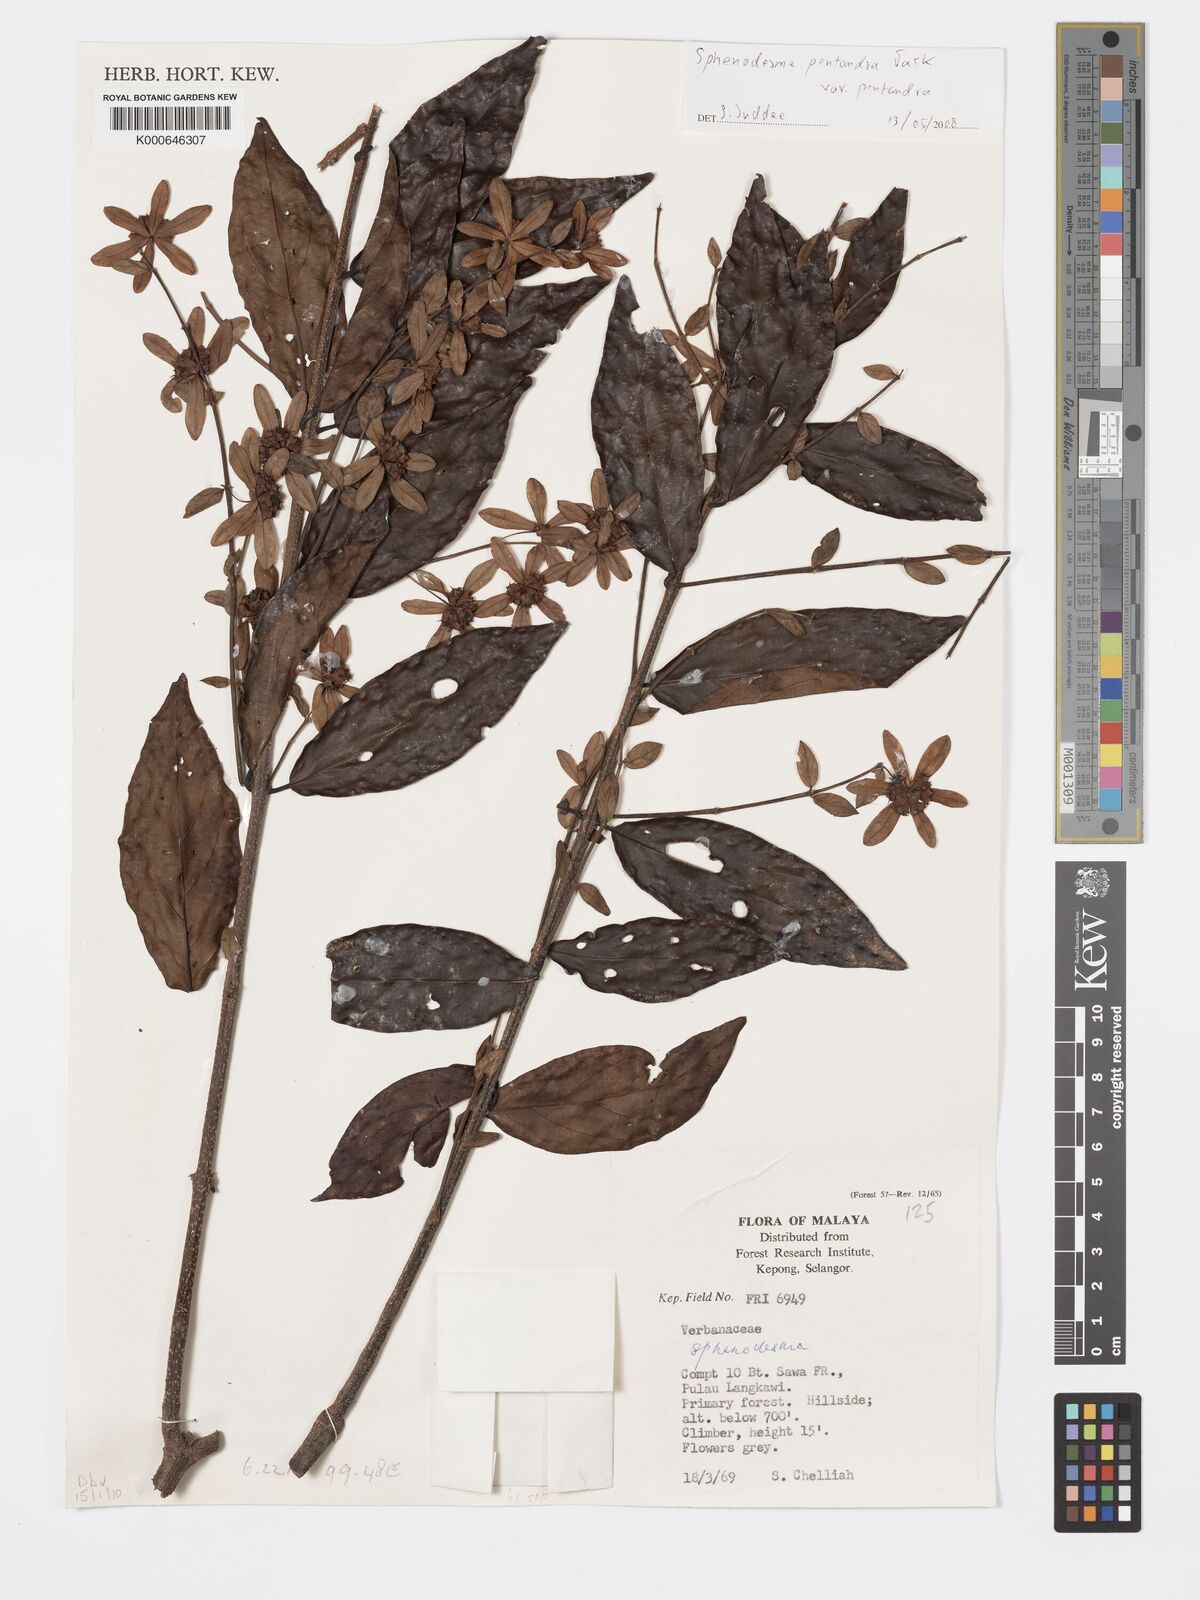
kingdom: Plantae
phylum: Tracheophyta
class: Magnoliopsida
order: Lamiales
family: Lamiaceae
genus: Sphenodesme
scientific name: Sphenodesme pentandra
